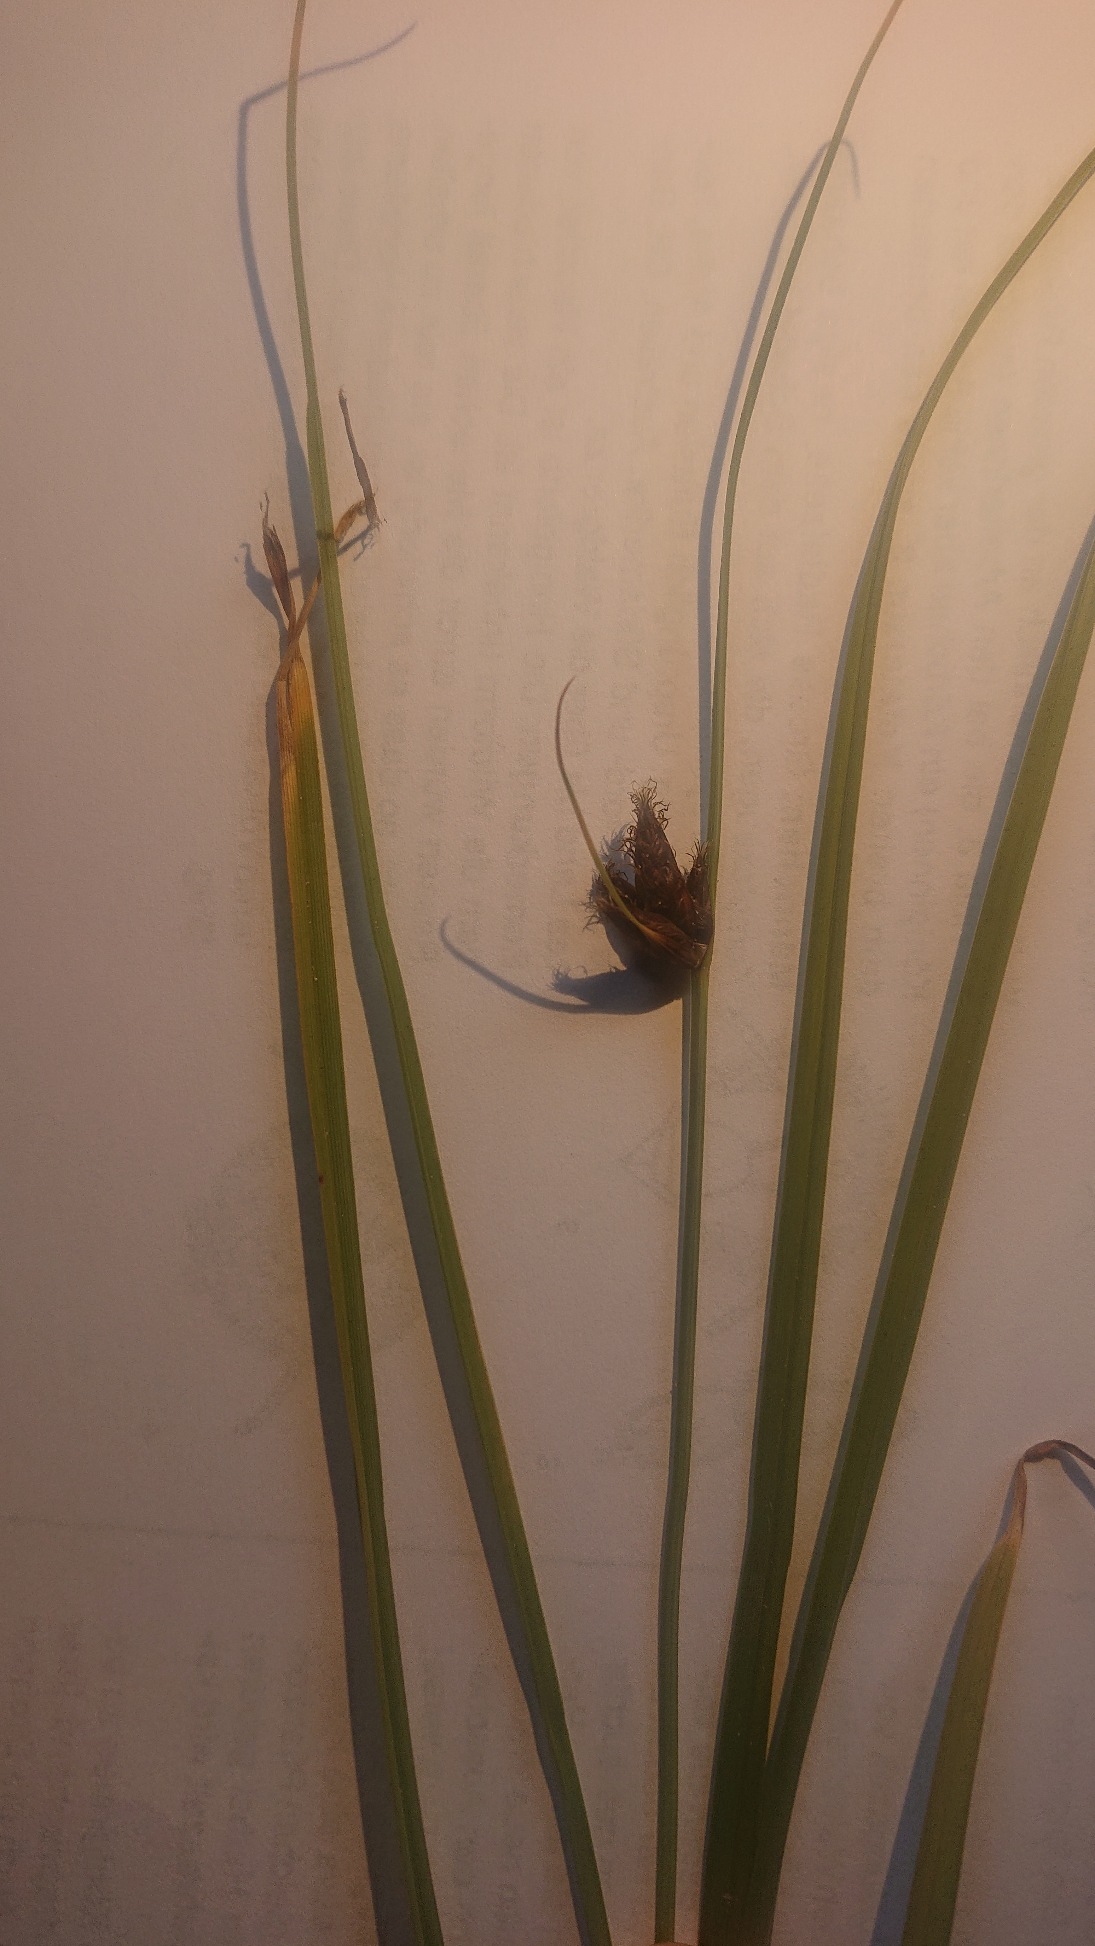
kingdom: Plantae
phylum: Tracheophyta
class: Liliopsida
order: Poales
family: Cyperaceae
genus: Bolboschoenus
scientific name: Bolboschoenus maritimus
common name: Strand-kogleaks
